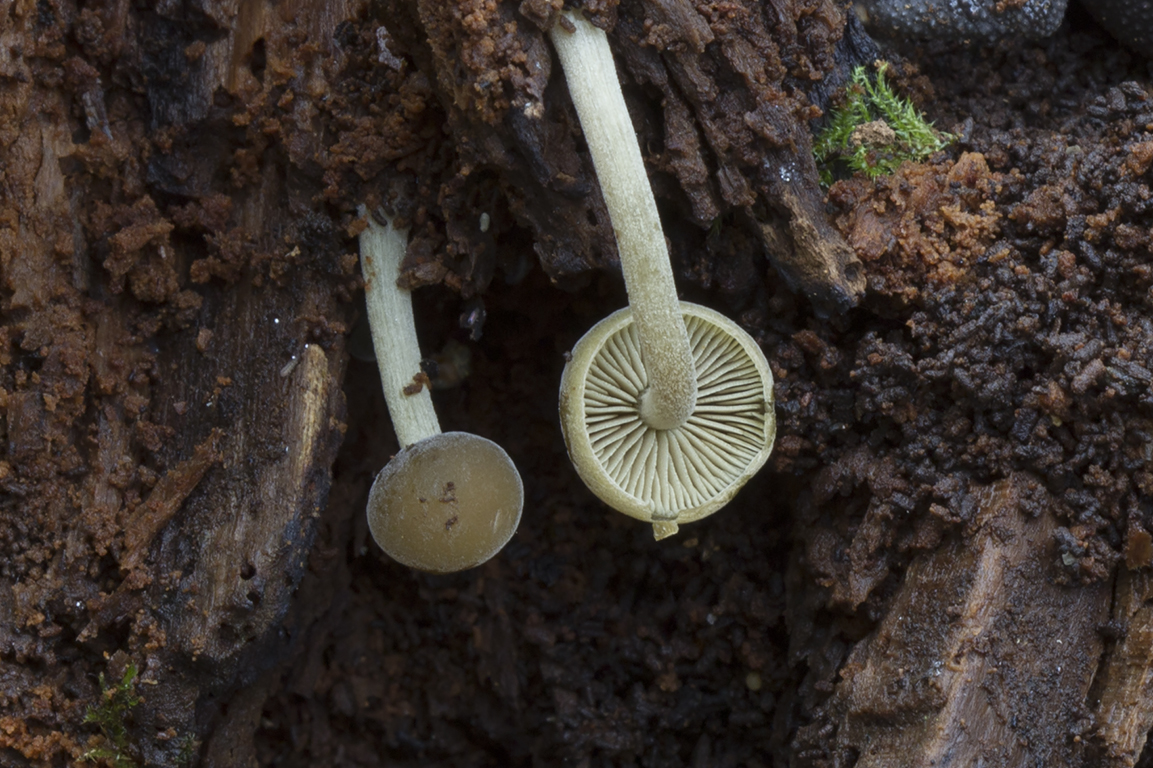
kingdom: Fungi
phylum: Basidiomycota
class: Agaricomycetes
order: Agaricales
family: Crepidotaceae
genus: Simocybe
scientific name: Simocybe sumptuosa
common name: stor skyggehat
